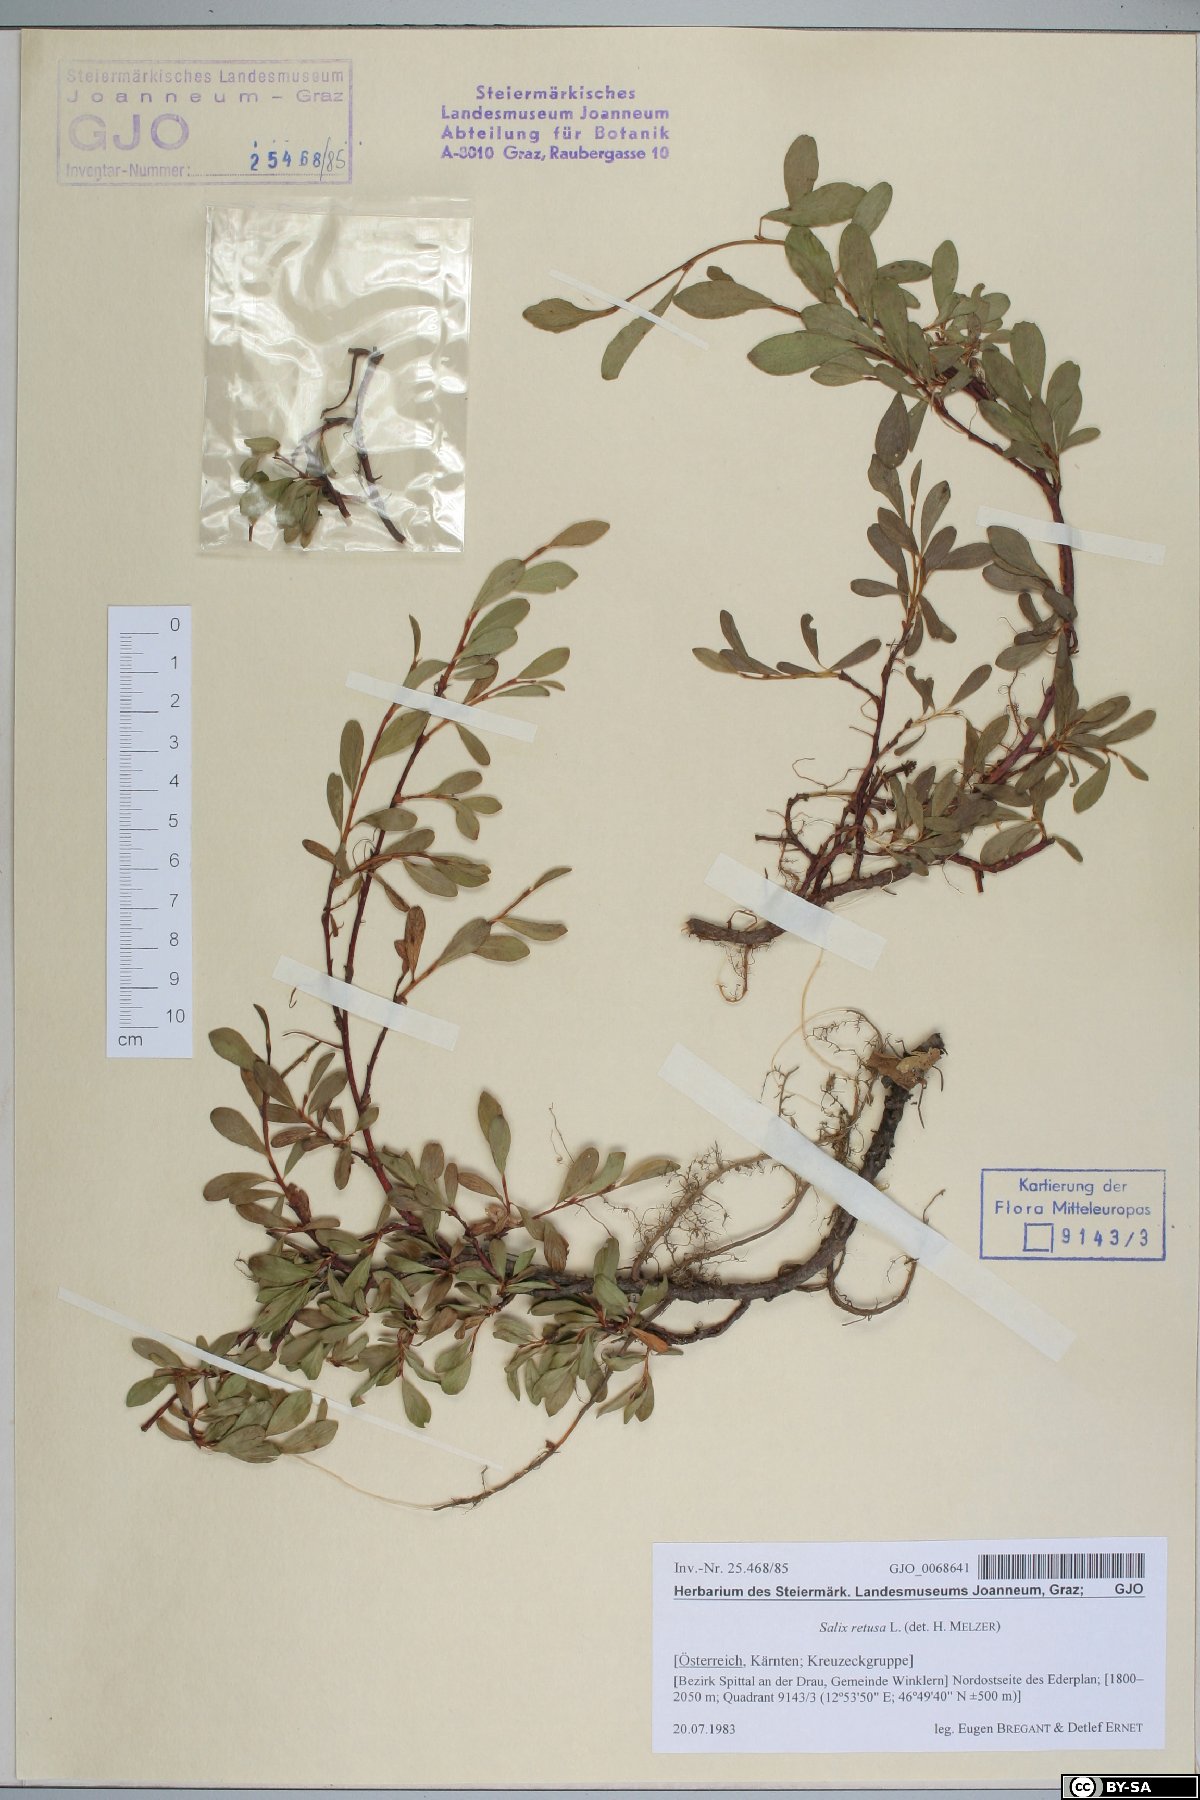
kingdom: Plantae
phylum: Tracheophyta
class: Magnoliopsida
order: Malpighiales
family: Salicaceae
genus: Salix
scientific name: Salix retusa
